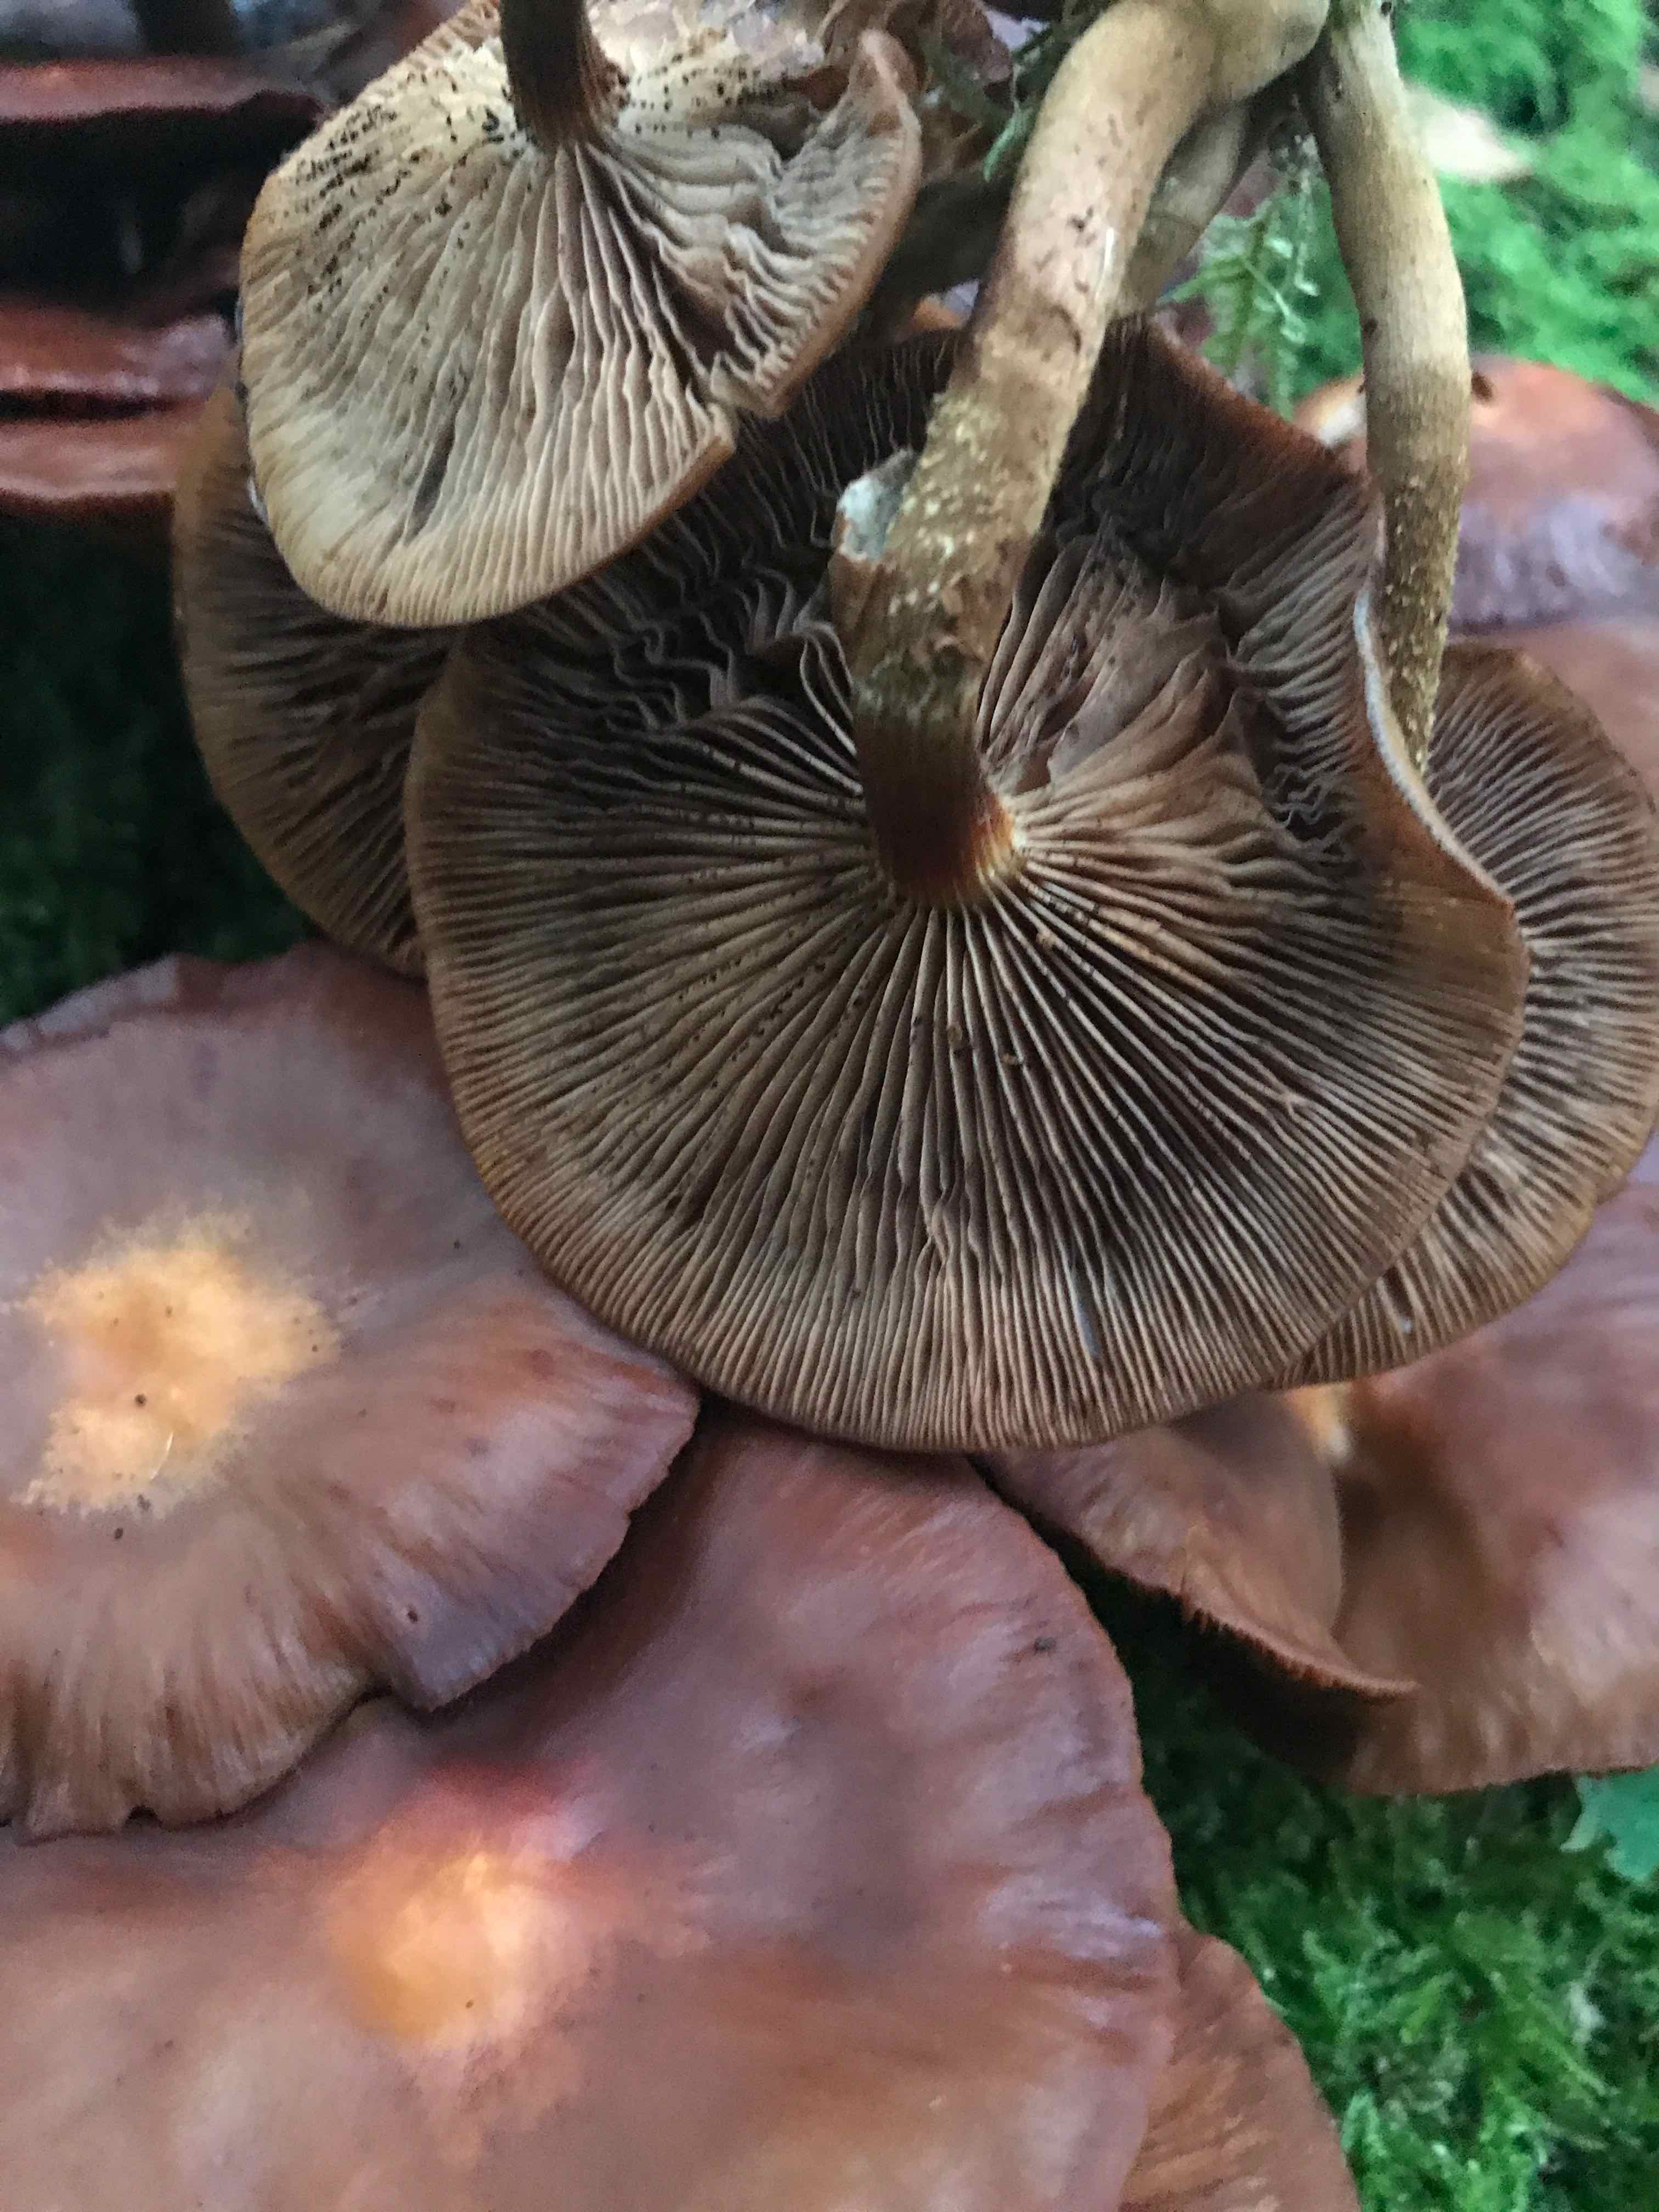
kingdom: Fungi
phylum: Basidiomycota
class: Agaricomycetes
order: Agaricales
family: Strophariaceae
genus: Kuehneromyces
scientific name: Kuehneromyces mutabilis
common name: foranderlig skælhat
